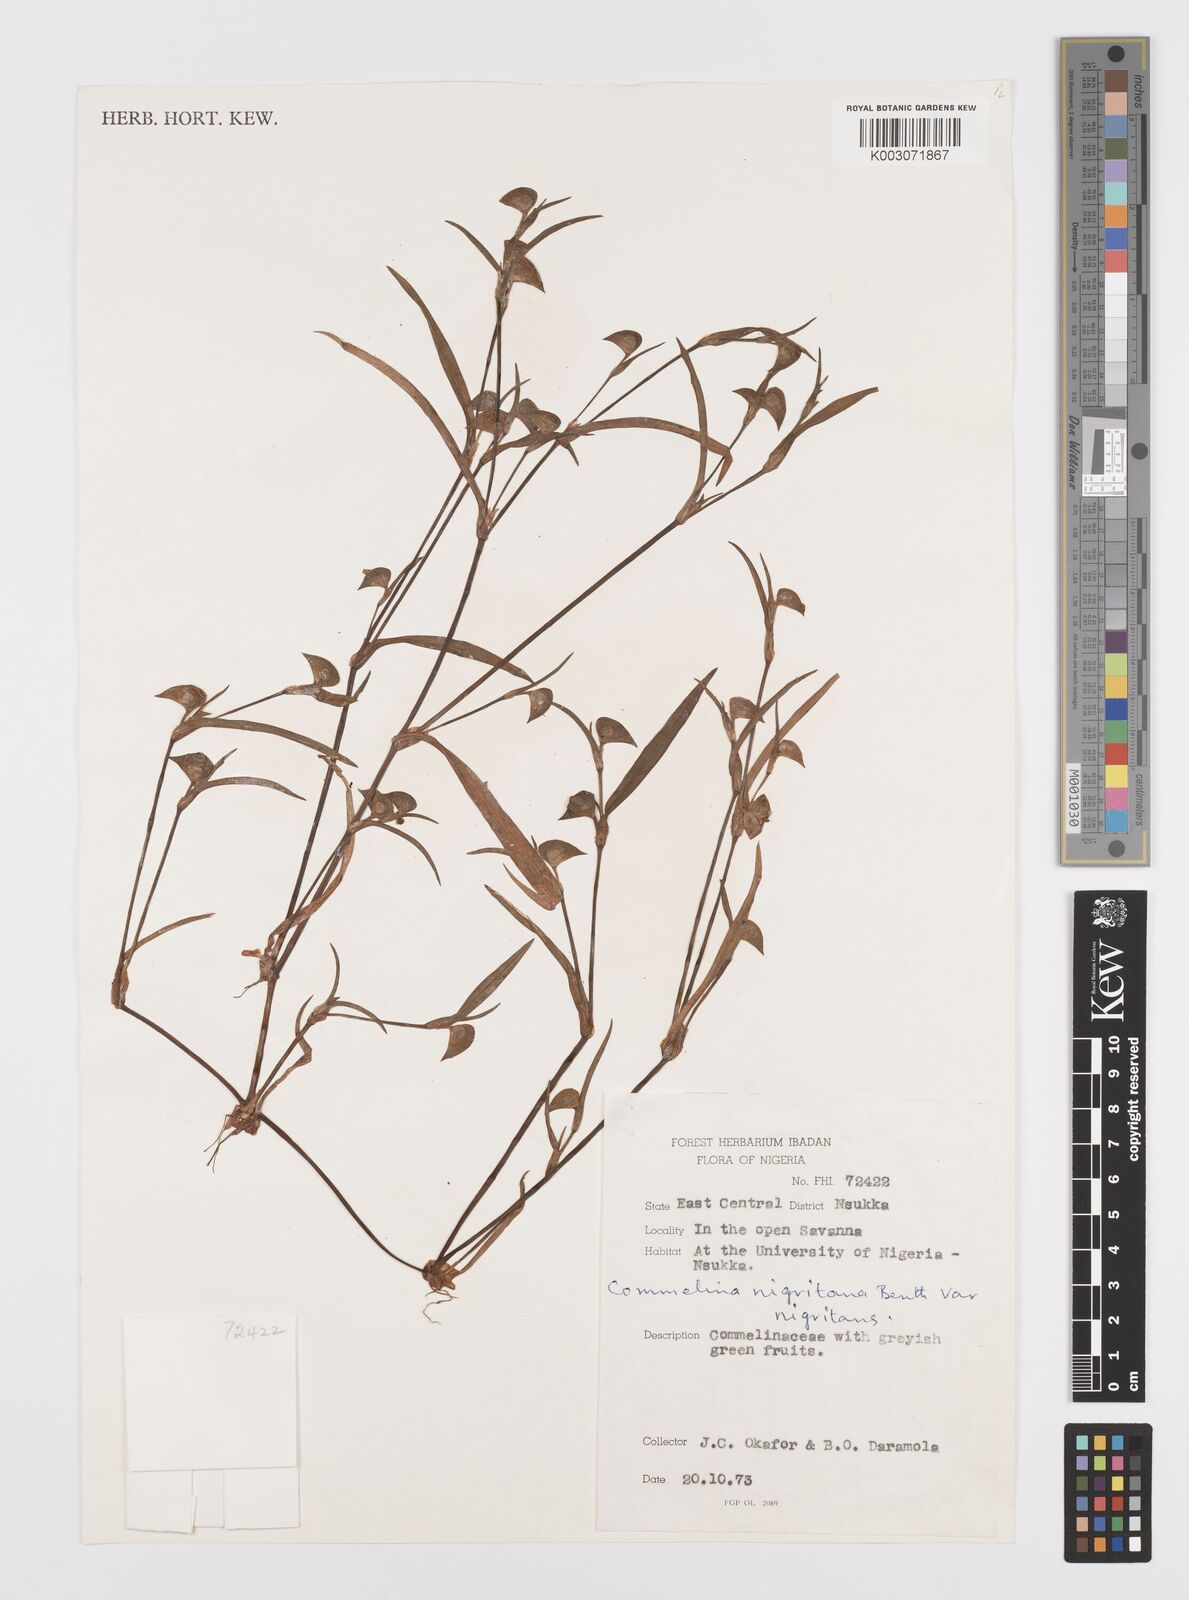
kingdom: Plantae
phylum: Tracheophyta
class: Liliopsida
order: Commelinales
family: Commelinaceae
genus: Commelina
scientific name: Commelina
